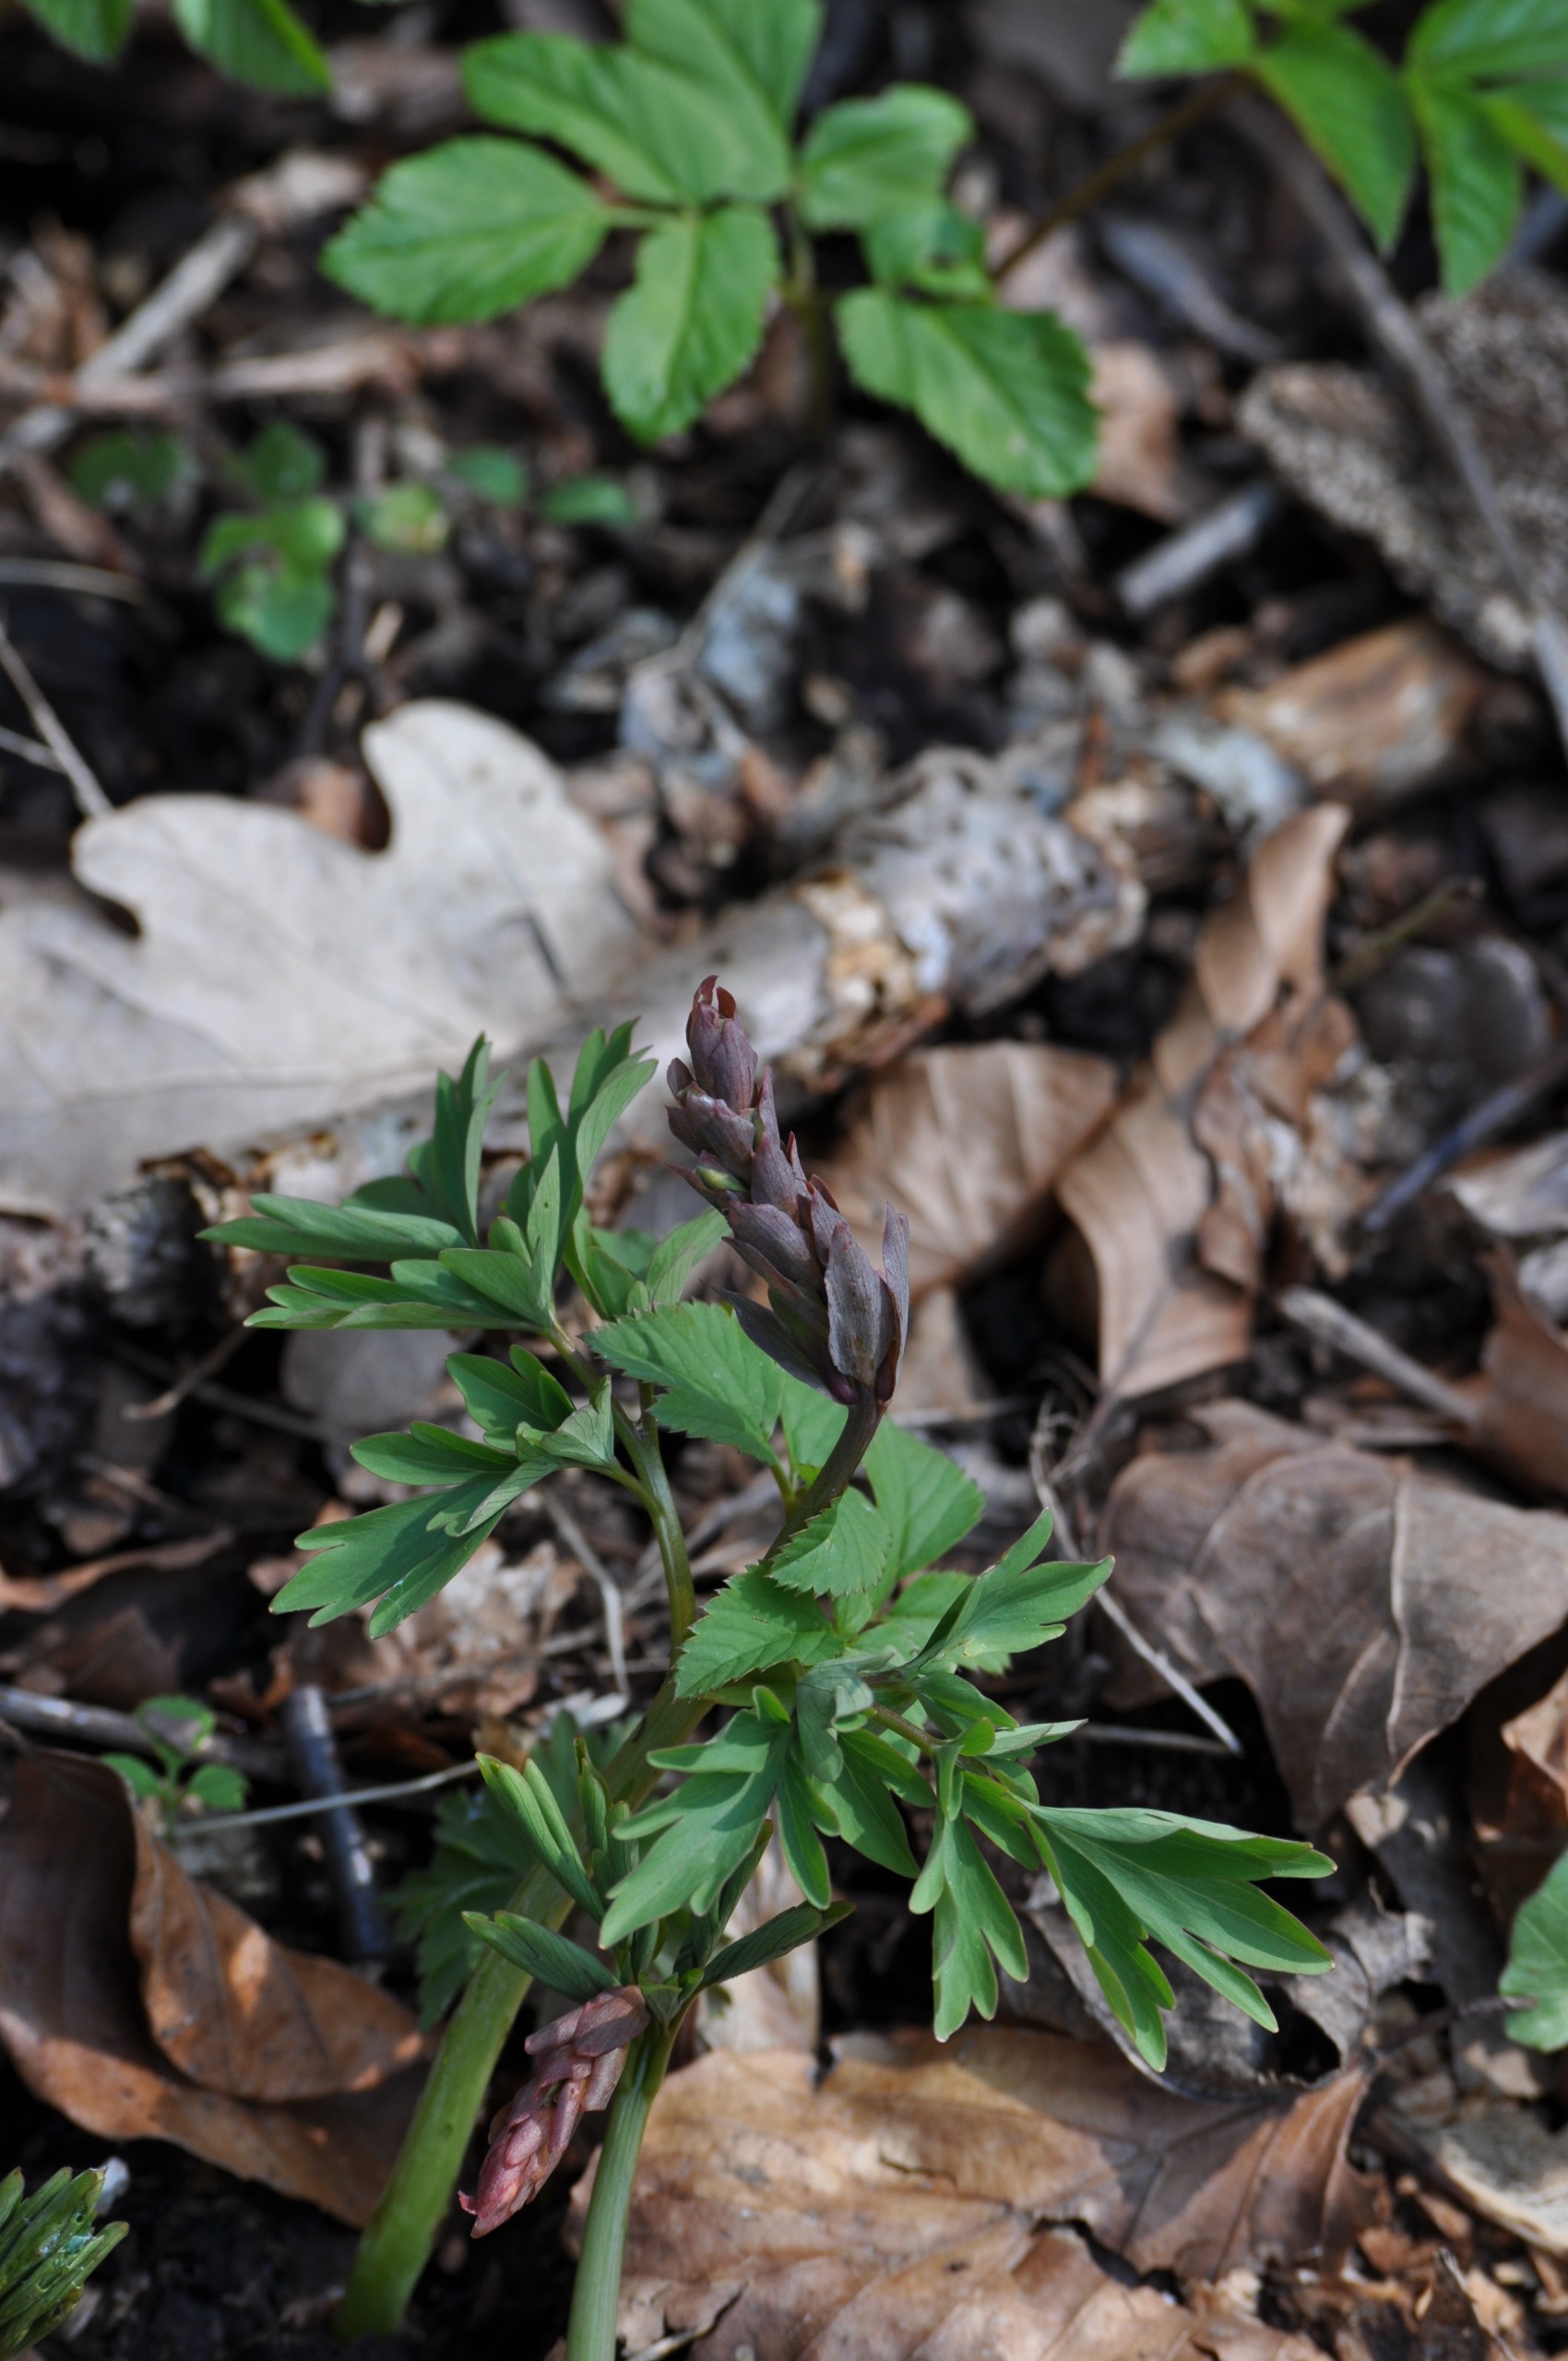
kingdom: Plantae
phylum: Tracheophyta
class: Magnoliopsida
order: Ranunculales
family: Papaveraceae
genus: Corydalis
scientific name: Corydalis cava
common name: Hulrodet lærkespore
